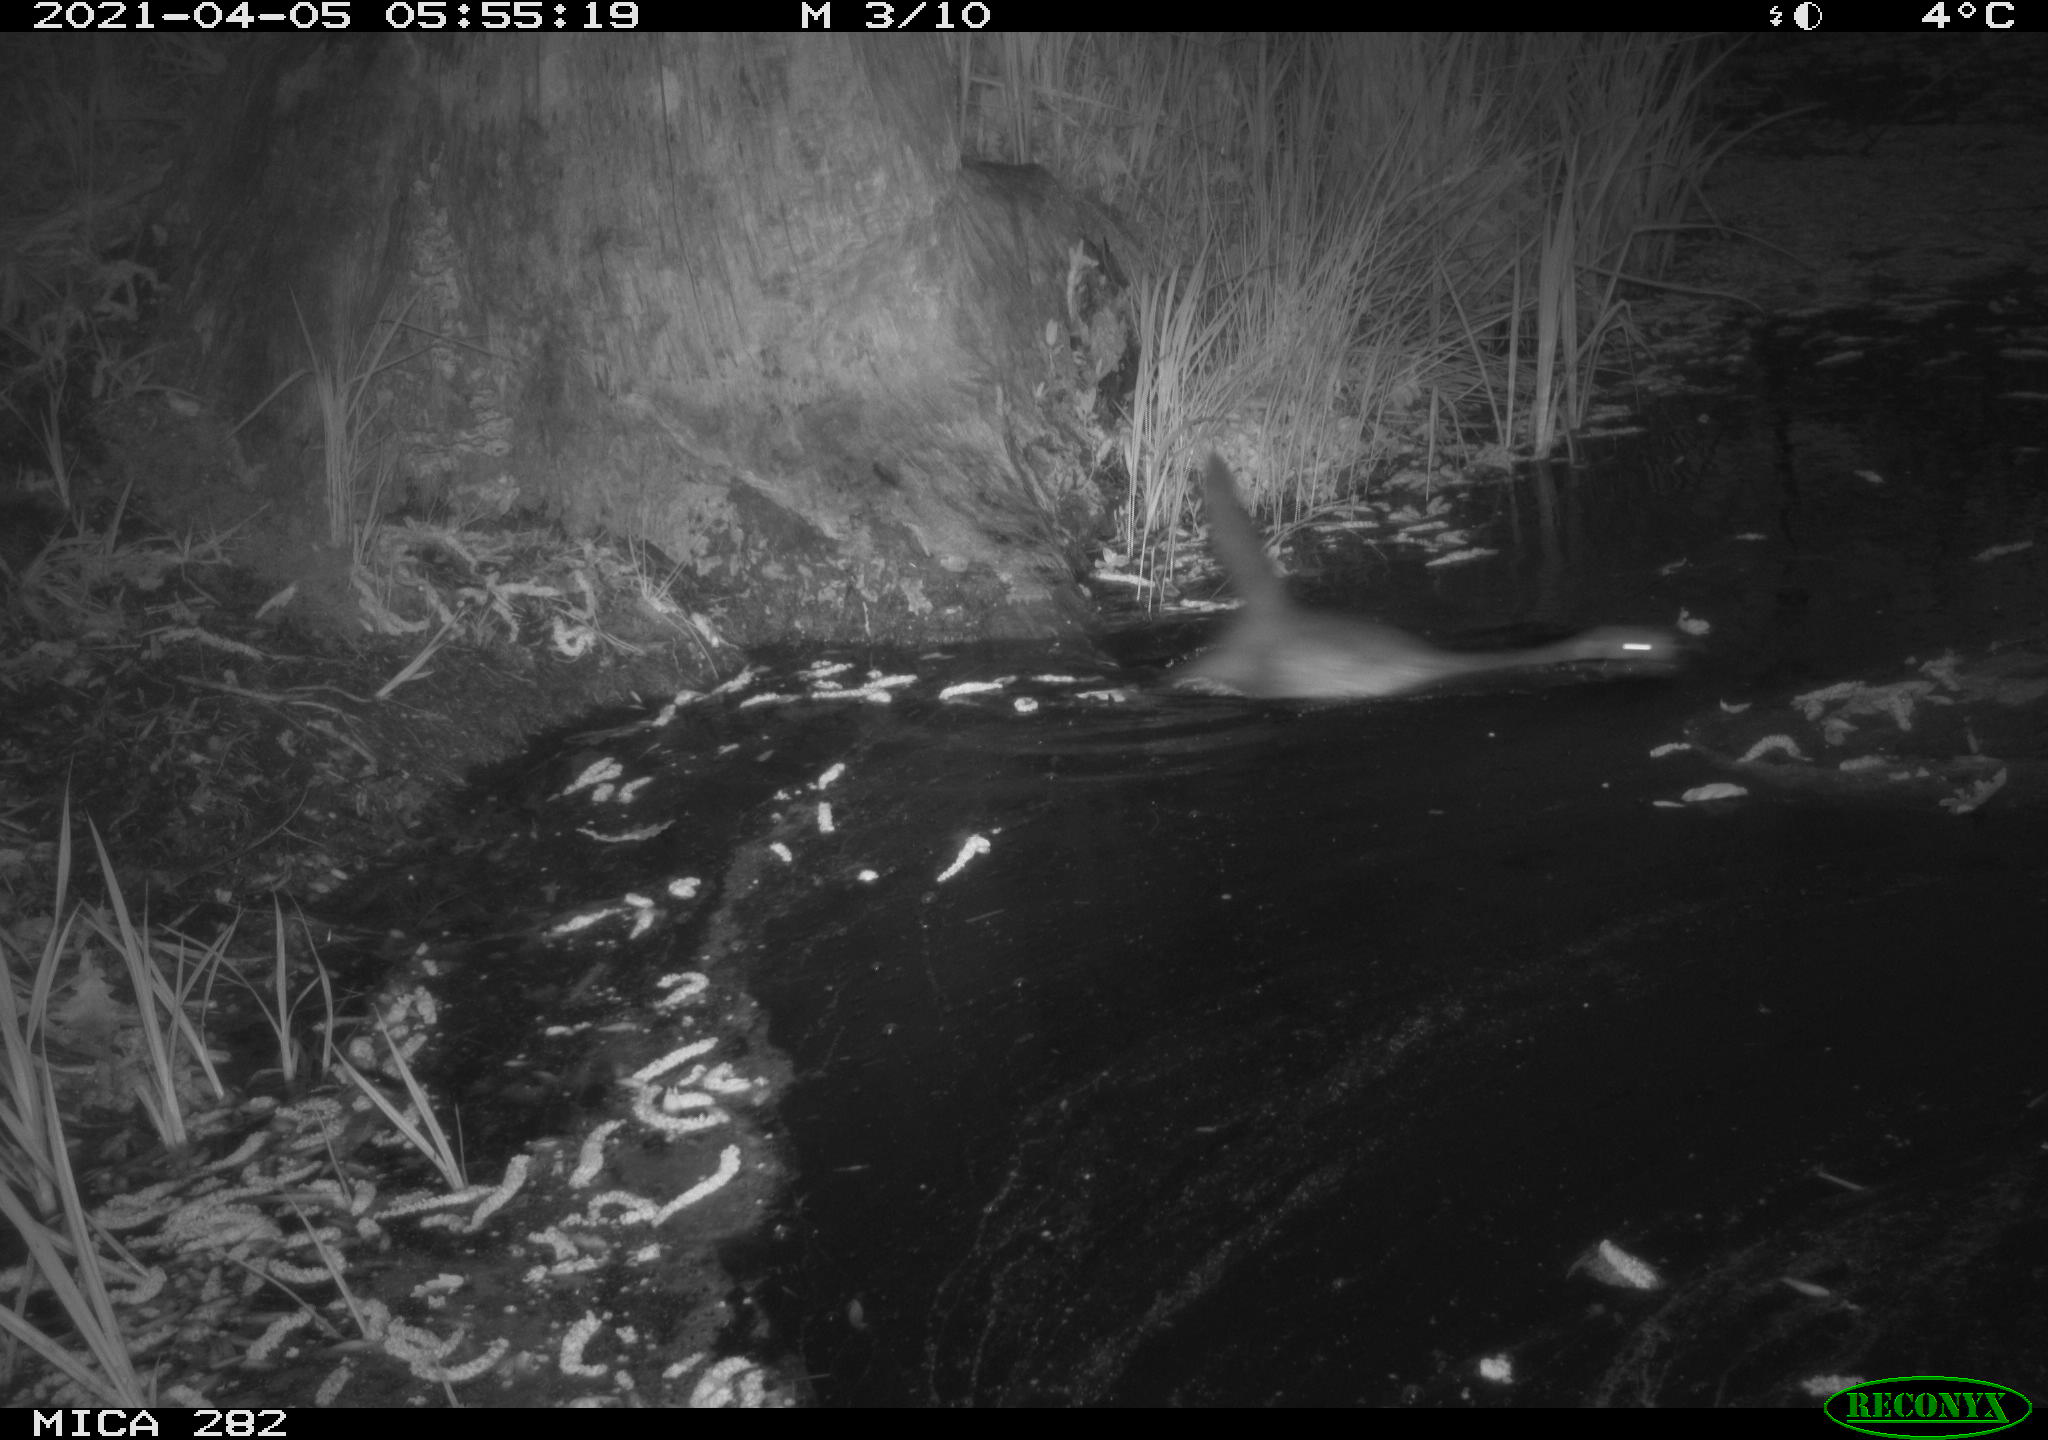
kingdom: Animalia
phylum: Chordata
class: Mammalia
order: Carnivora
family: Mustelidae
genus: Mustela
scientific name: Mustela putorius
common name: European polecat
